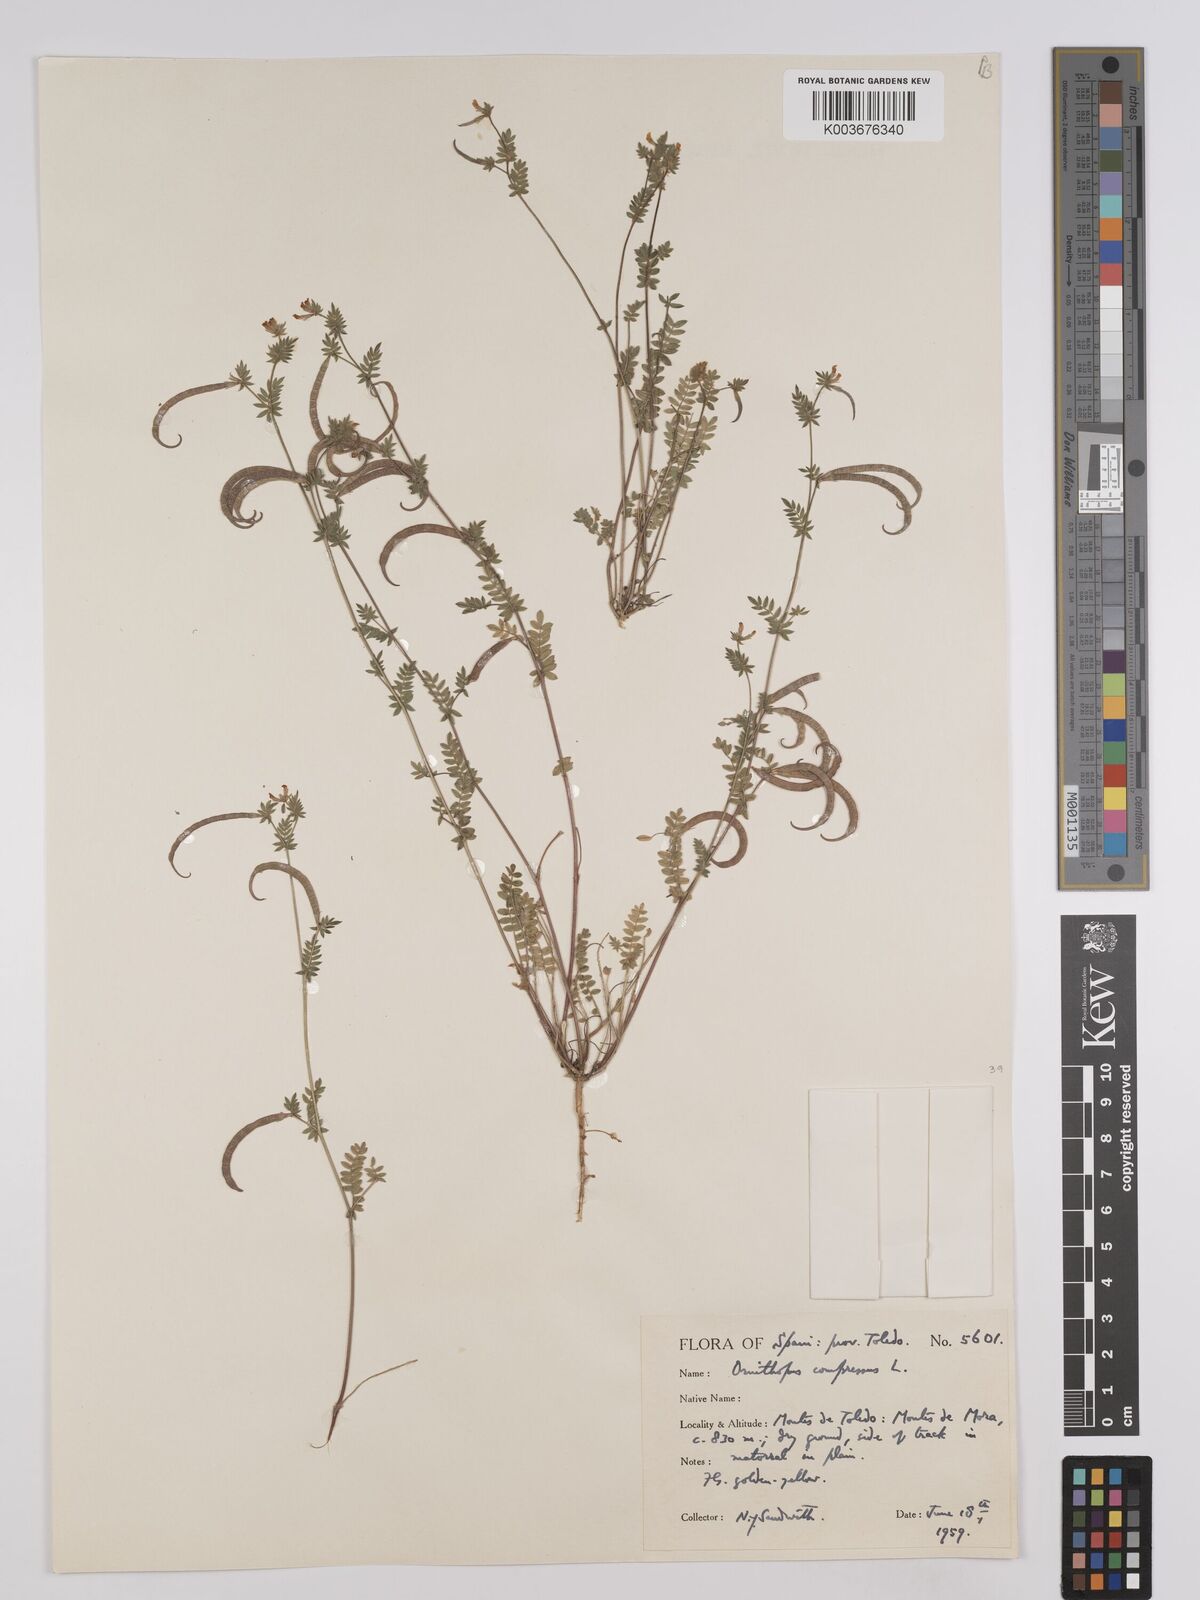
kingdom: Plantae
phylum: Tracheophyta
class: Magnoliopsida
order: Fabales
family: Fabaceae
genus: Ornithopus
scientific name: Ornithopus compressus
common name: Yellow serradella
